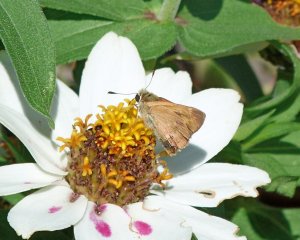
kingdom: Animalia
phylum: Arthropoda
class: Insecta
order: Lepidoptera
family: Hesperiidae
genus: Ochlodes
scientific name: Ochlodes sylvanoides
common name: Woodland Skipper
